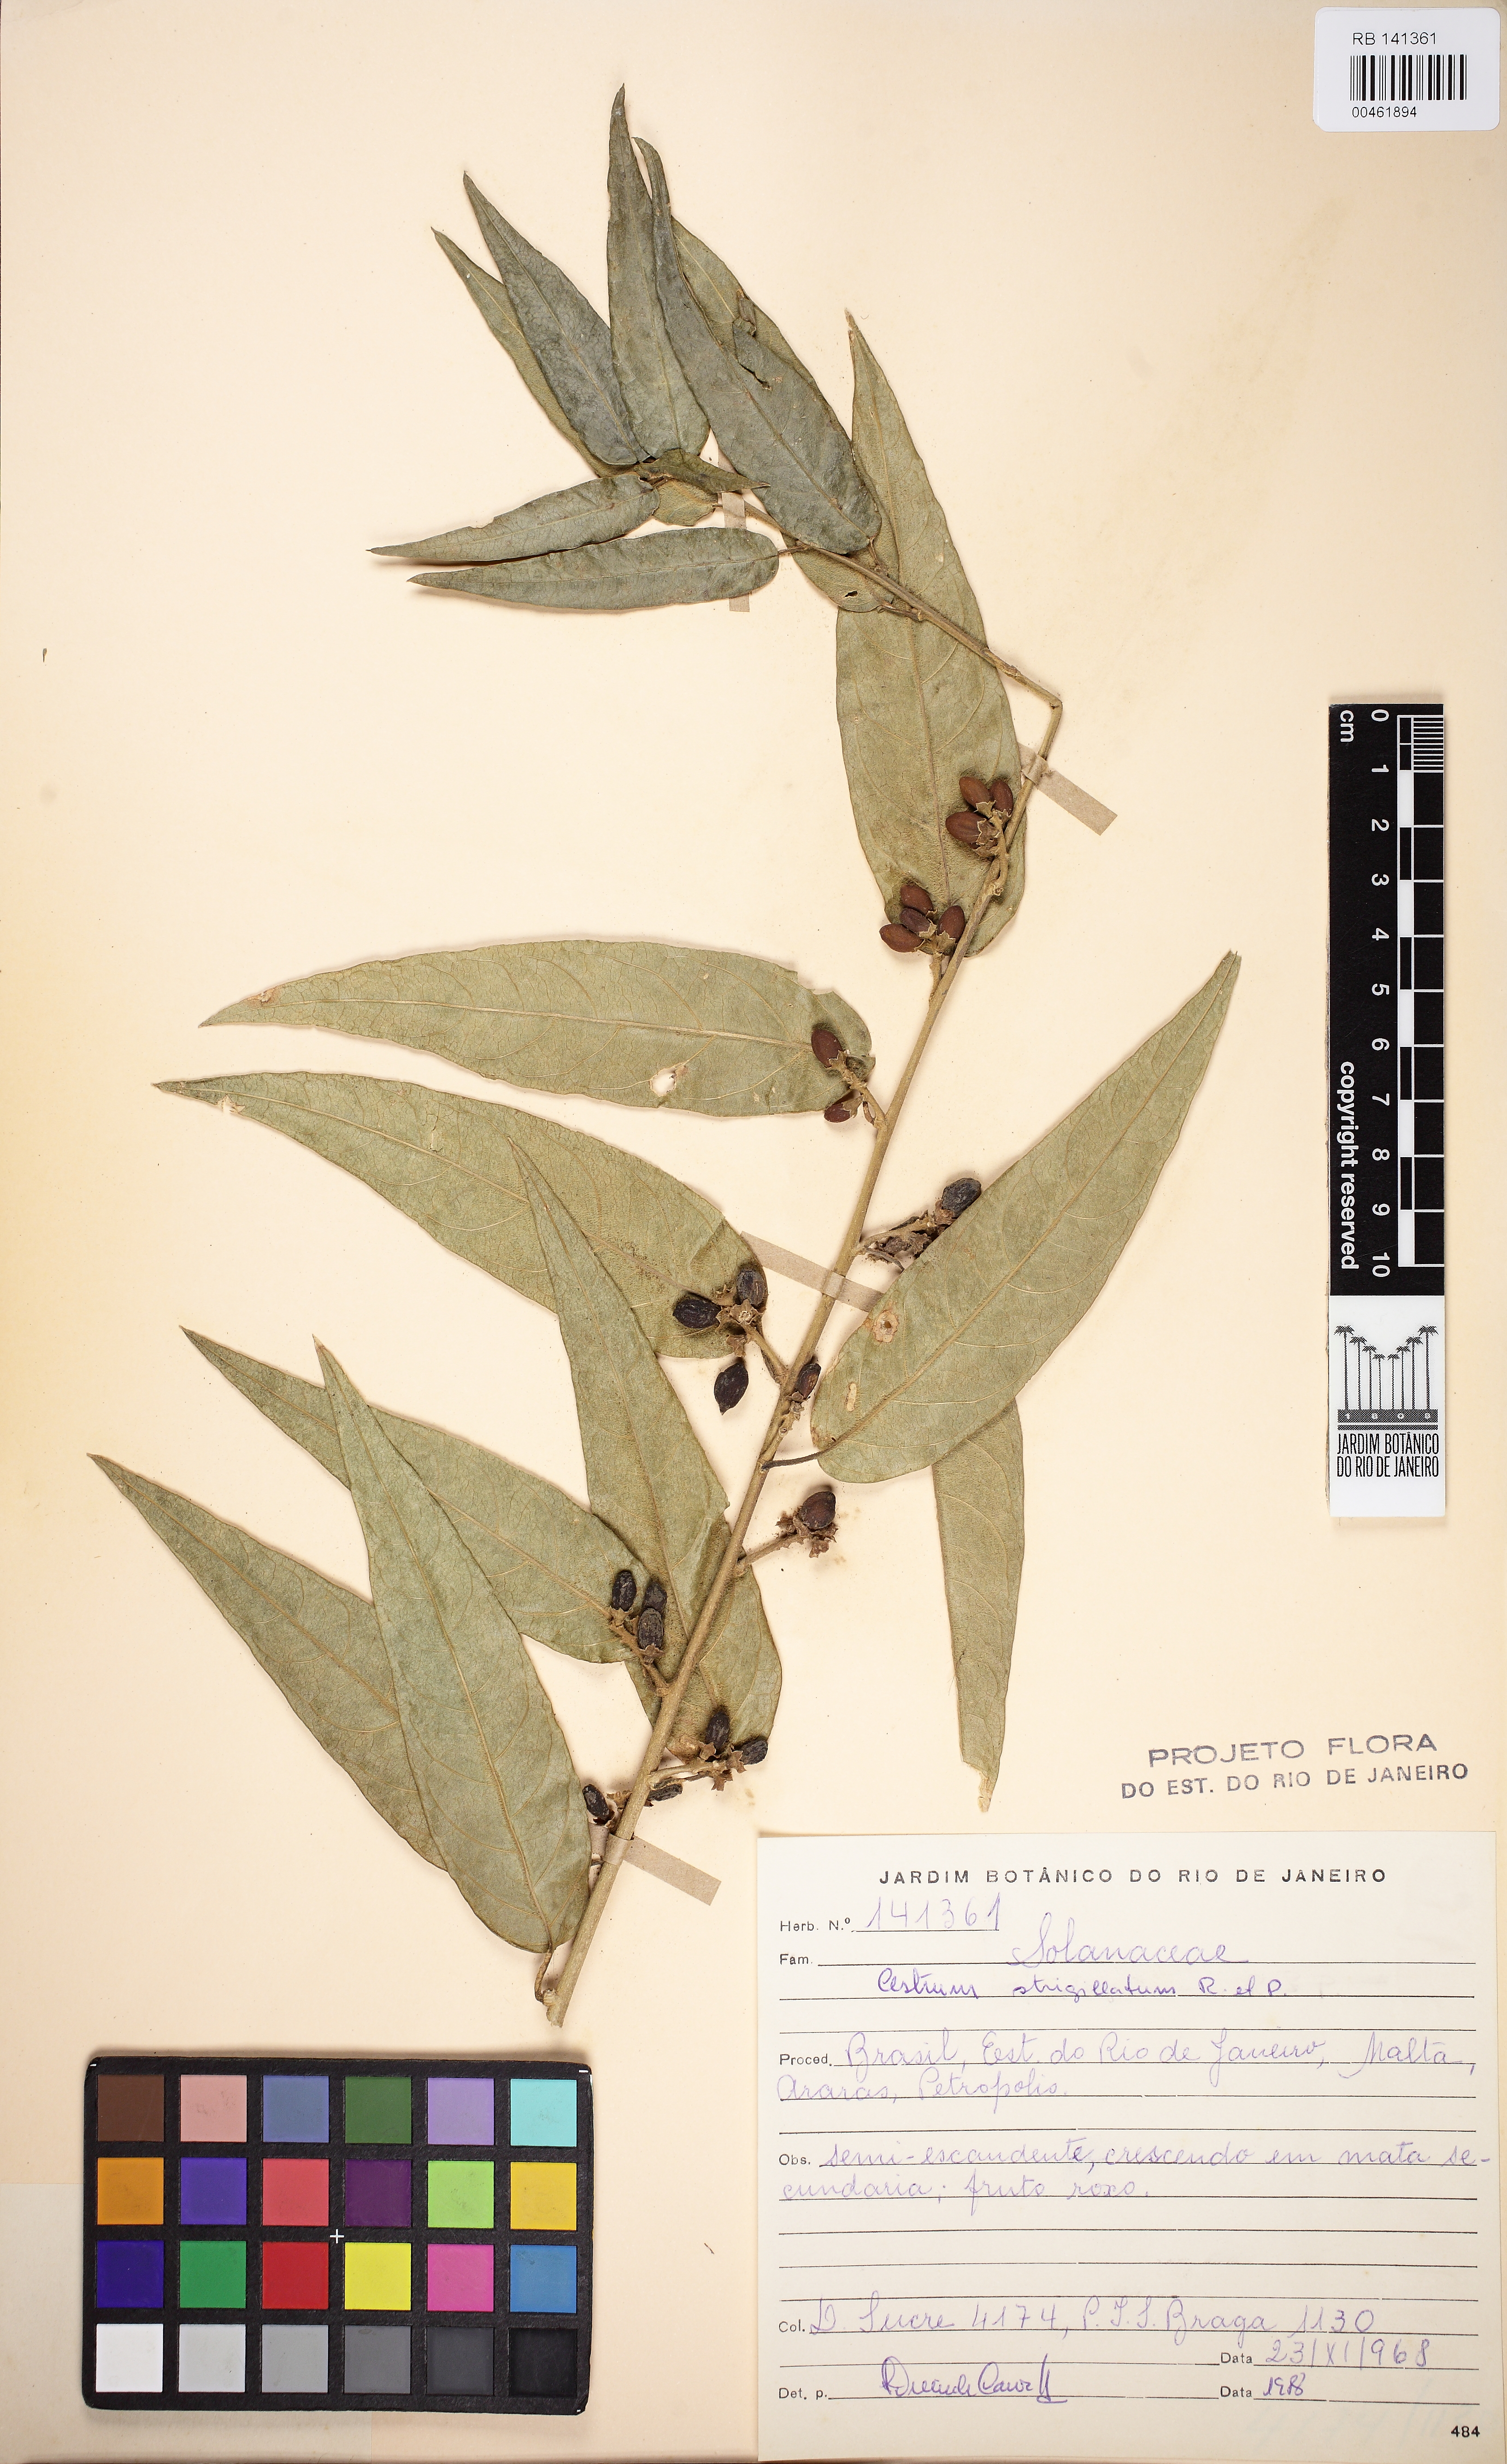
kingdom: Plantae
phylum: Tracheophyta
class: Magnoliopsida
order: Solanales
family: Solanaceae
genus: Cestrum
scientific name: Cestrum strigillatum
